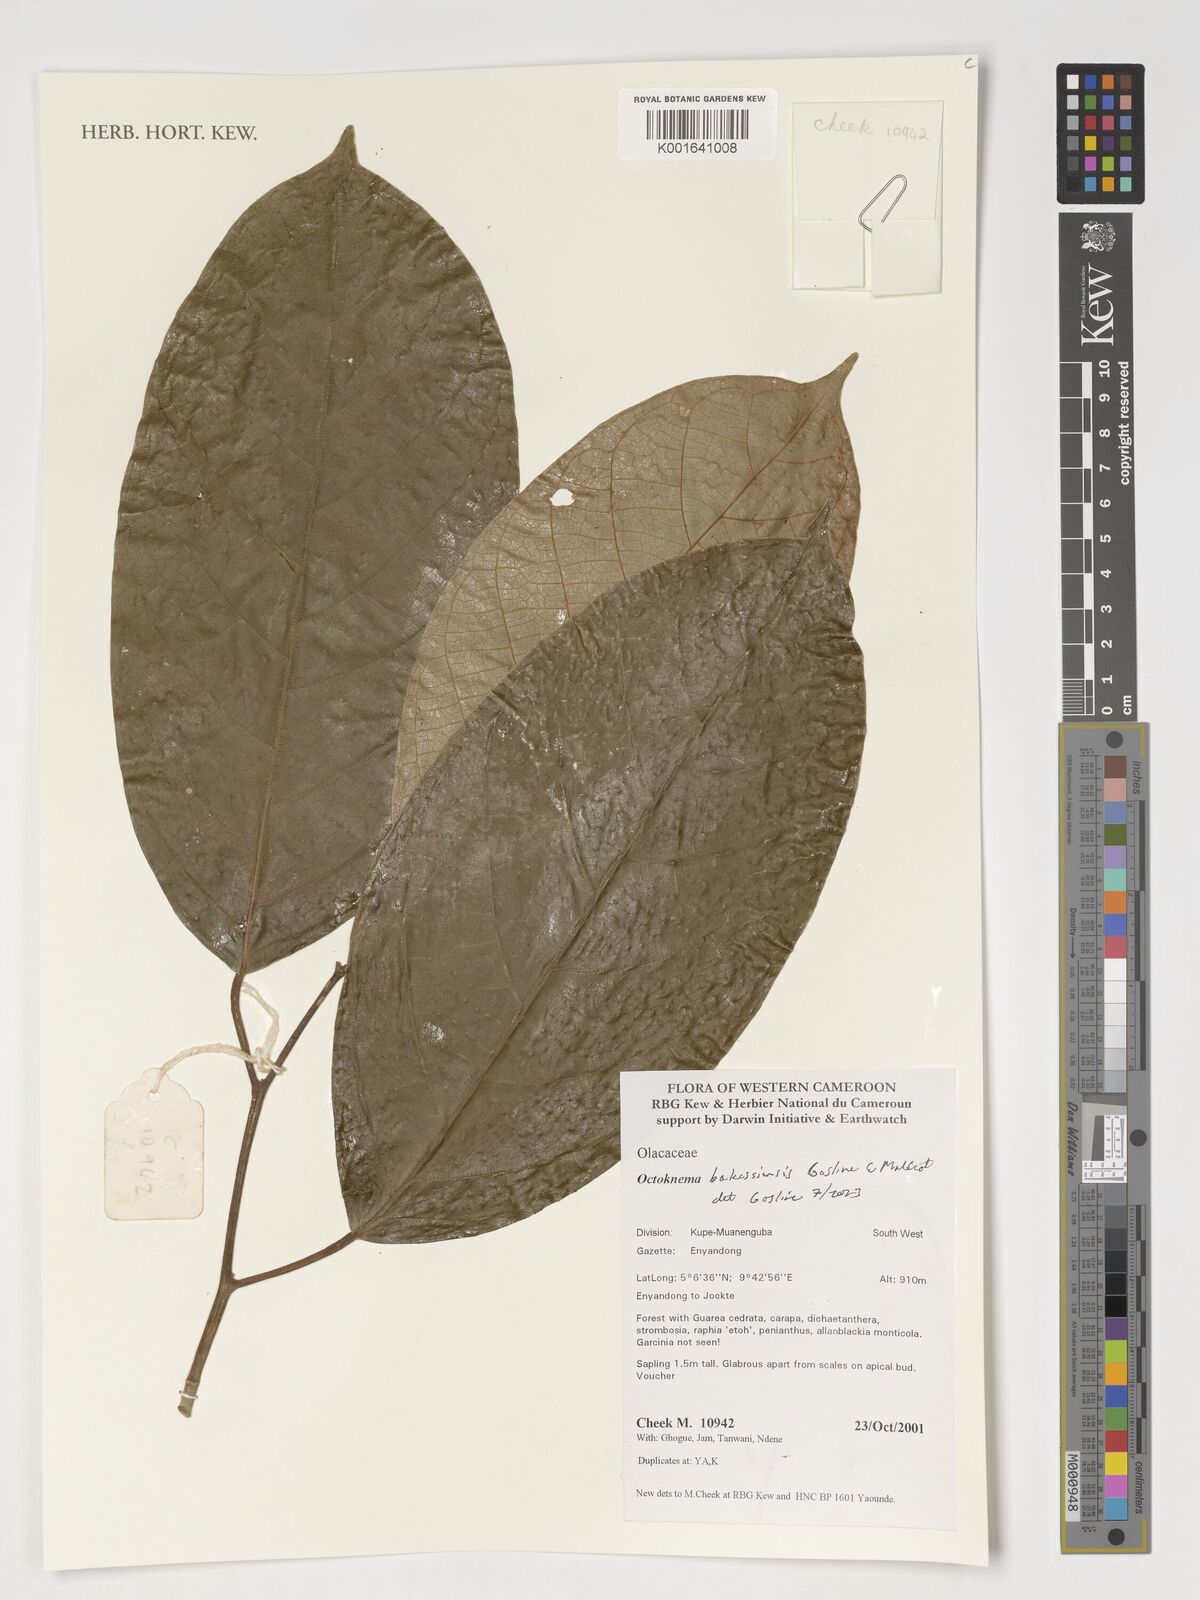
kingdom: Plantae
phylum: Tracheophyta
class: Magnoliopsida
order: Santalales
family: Octoknemaceae
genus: Octoknema
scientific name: Octoknema bakossiensis
